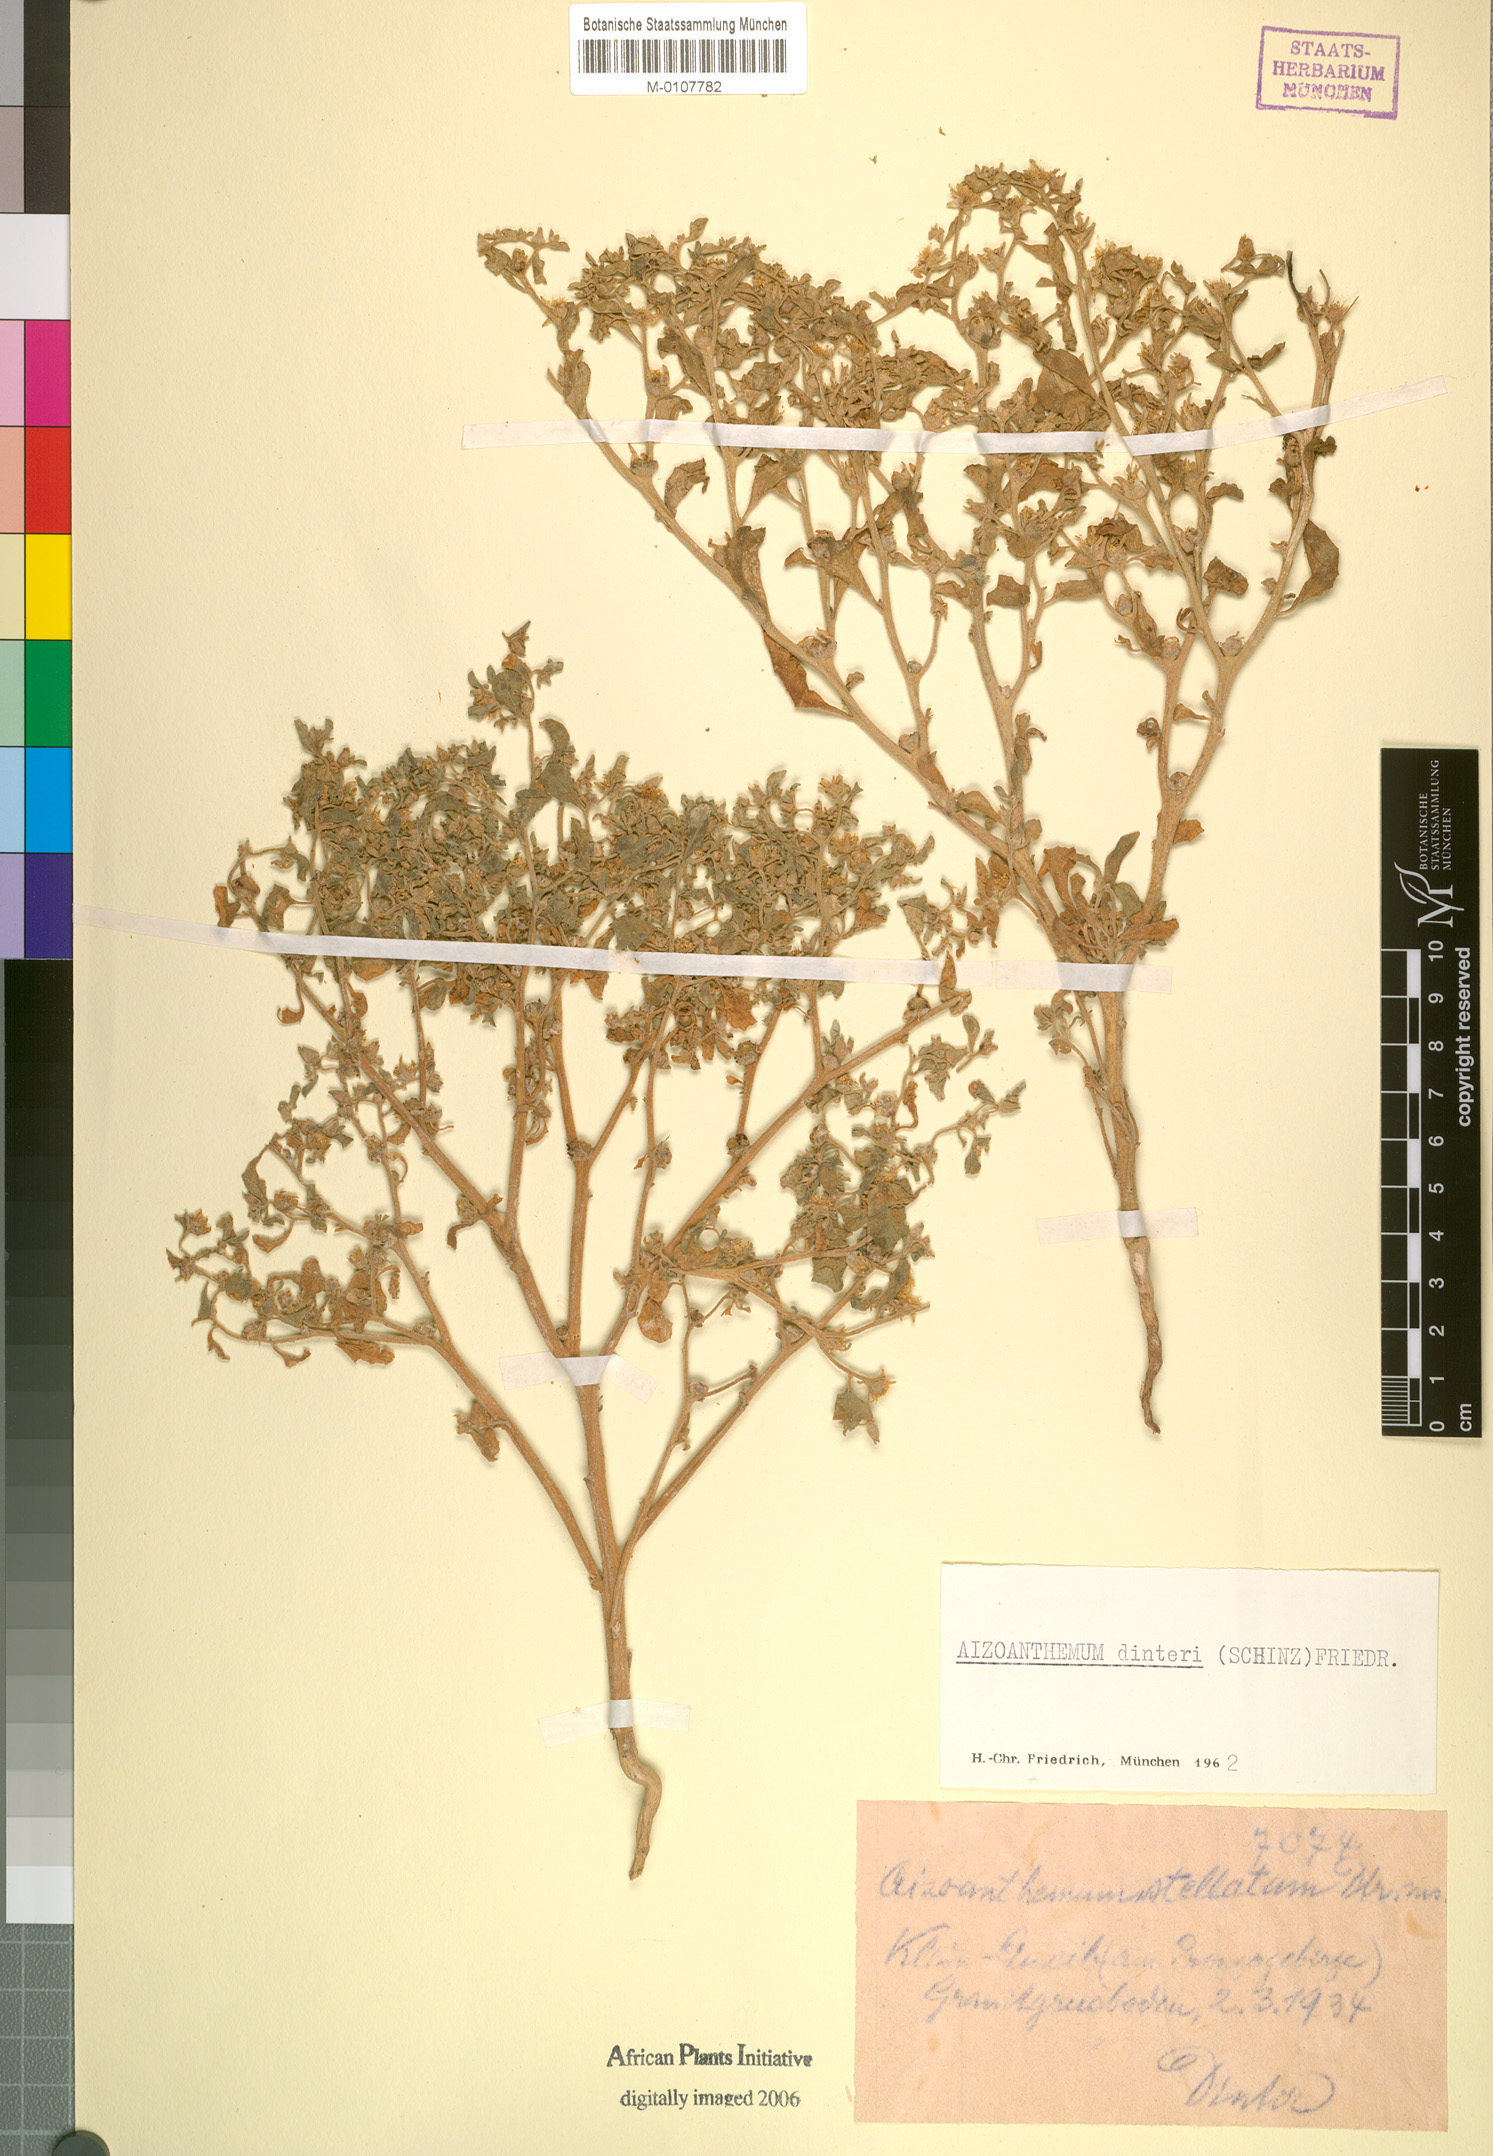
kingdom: Plantae
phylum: Tracheophyta
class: Magnoliopsida
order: Caryophyllales
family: Aizoaceae
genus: Aizoanthemum
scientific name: Aizoanthemum dinteri
